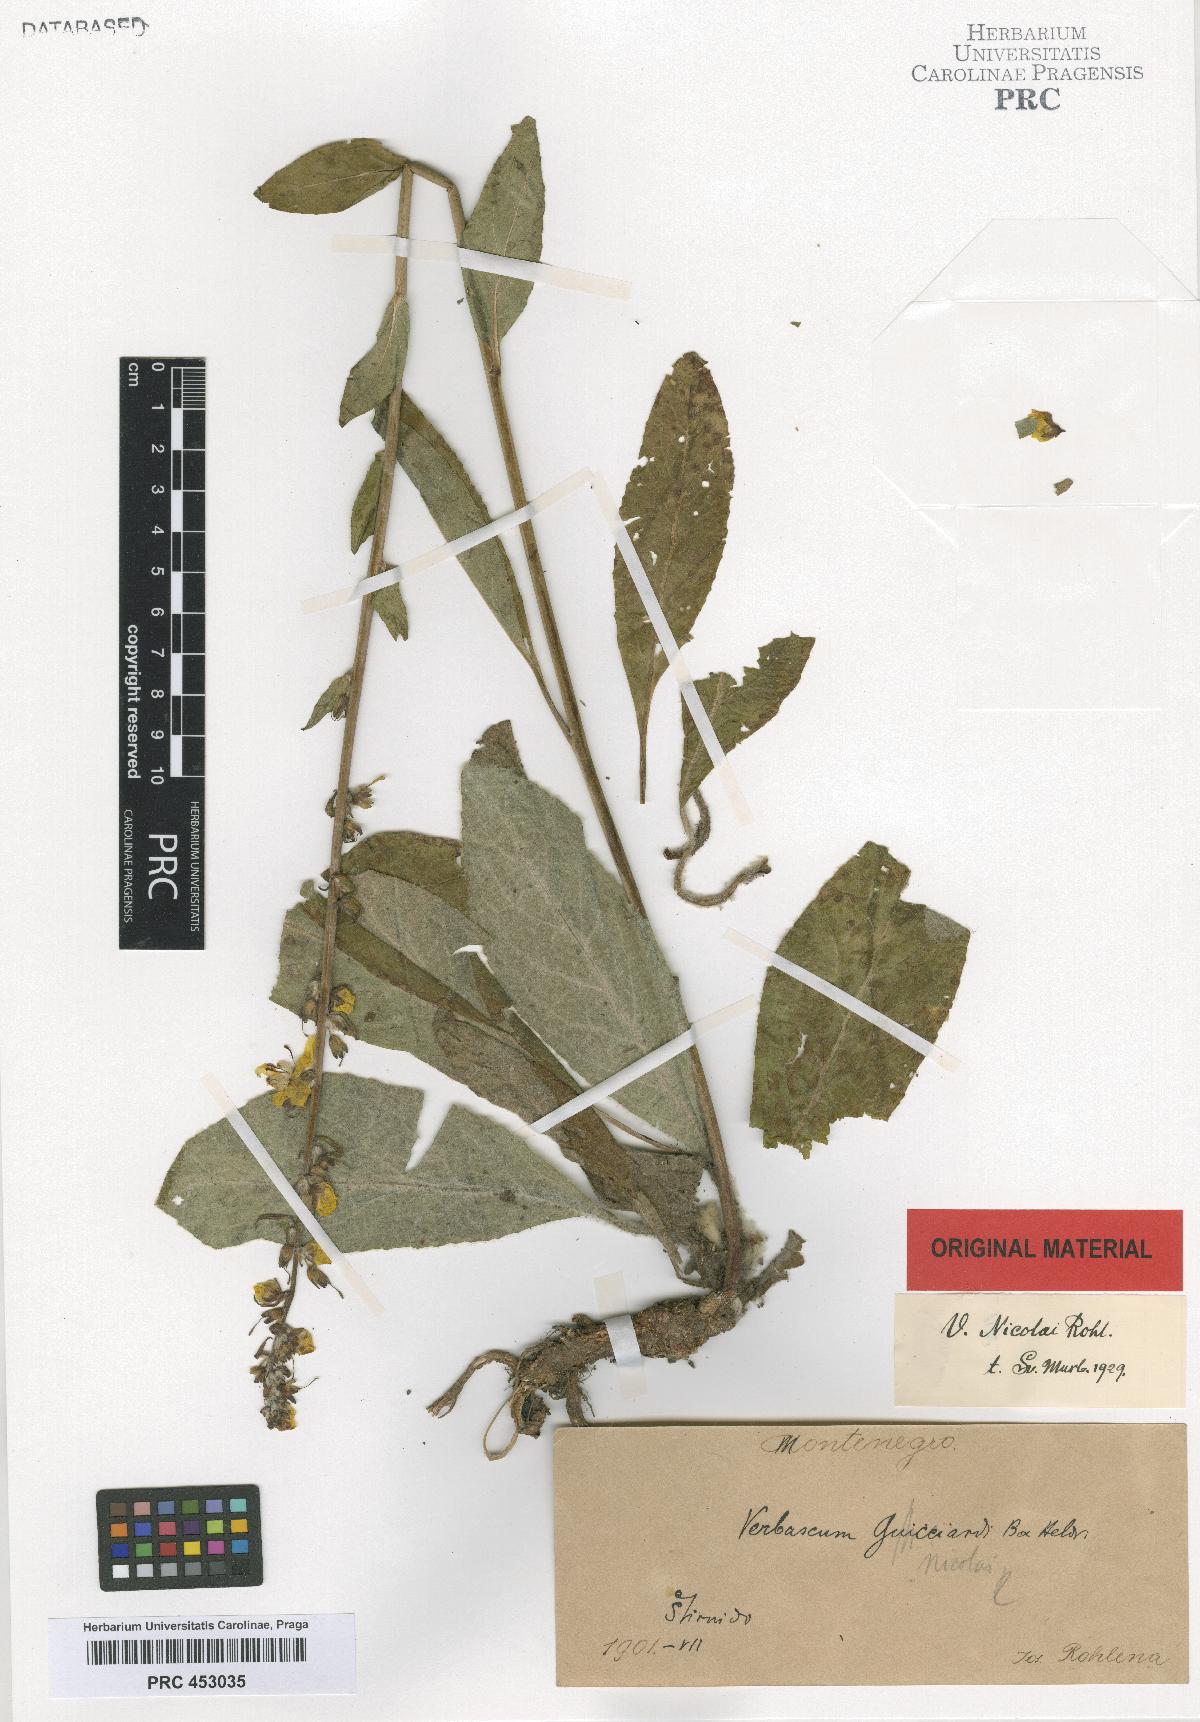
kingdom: Plantae
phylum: Tracheophyta
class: Magnoliopsida
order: Lamiales
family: Scrophulariaceae
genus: Verbascum
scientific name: Verbascum nicolai
